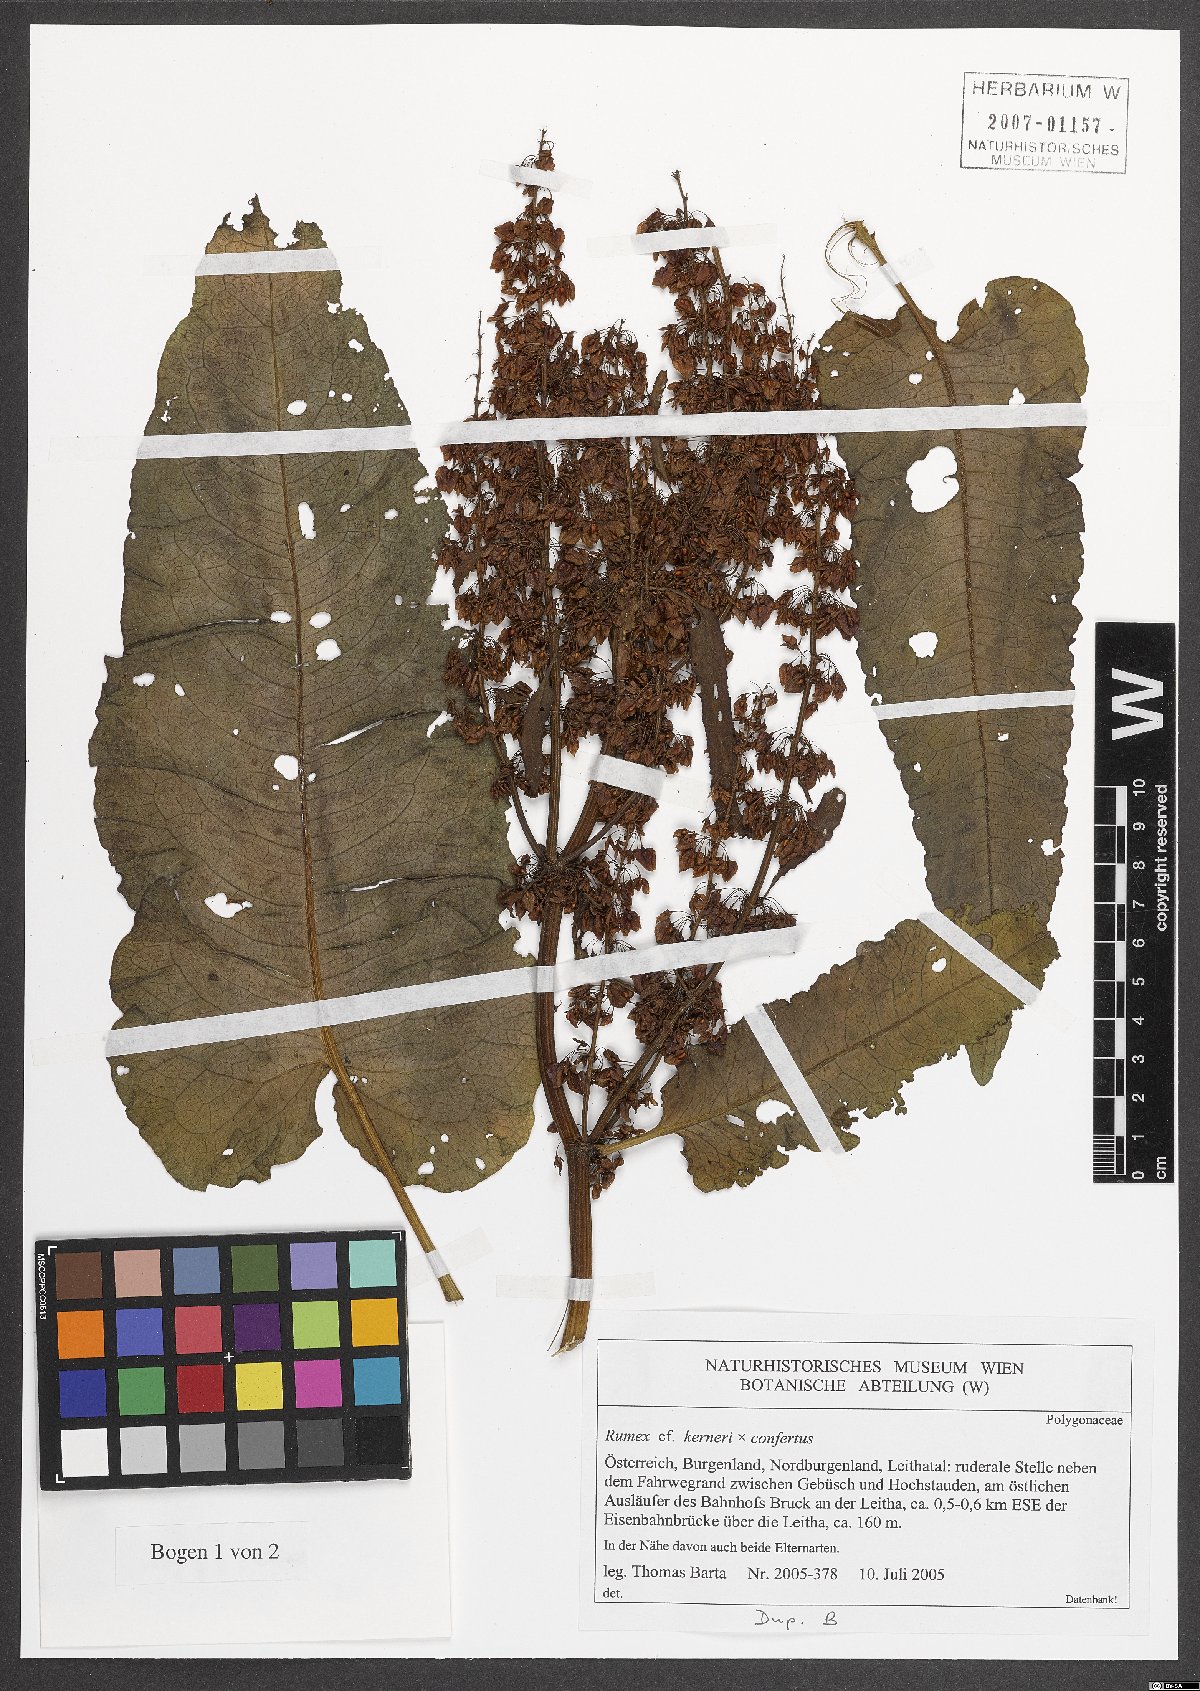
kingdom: Plantae
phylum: Tracheophyta
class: Magnoliopsida
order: Caryophyllales
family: Polygonaceae
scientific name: Polygonaceae
